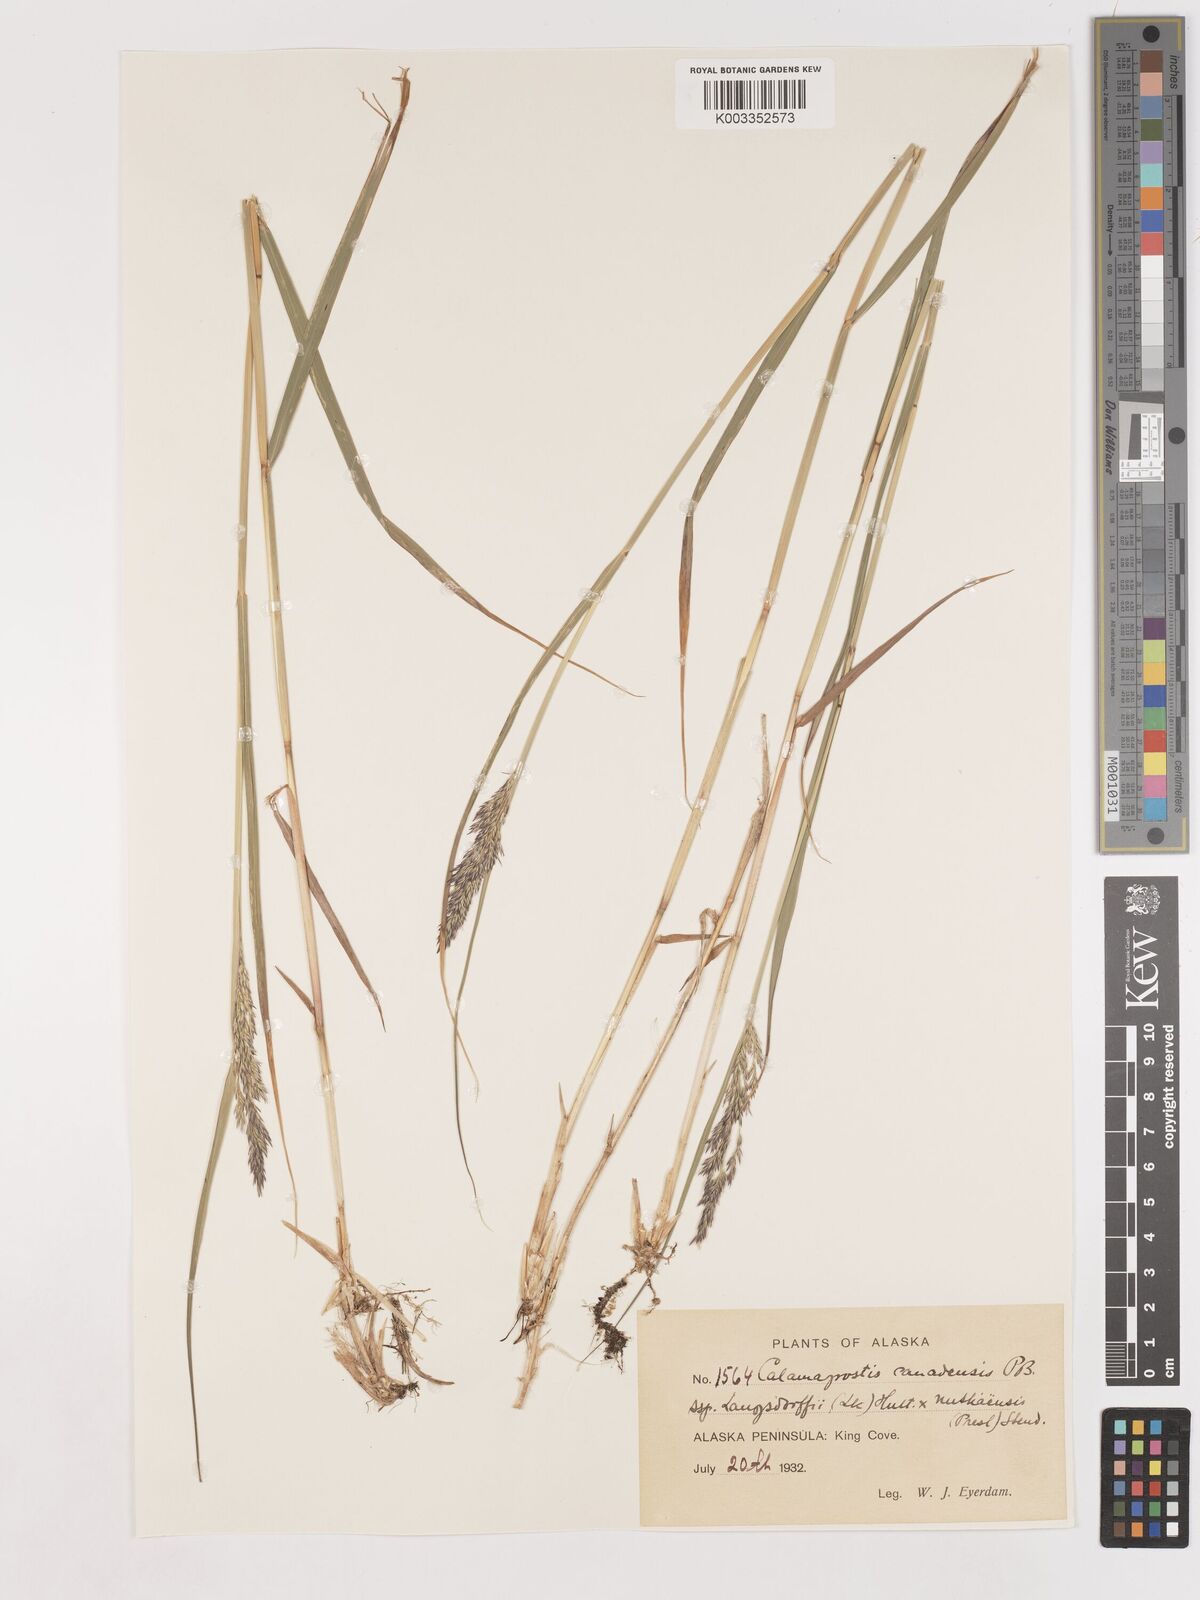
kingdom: Plantae
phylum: Tracheophyta
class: Liliopsida
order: Poales
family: Poaceae
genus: Calamagrostis
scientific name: Calamagrostis canadensis
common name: Canada bluejoint
